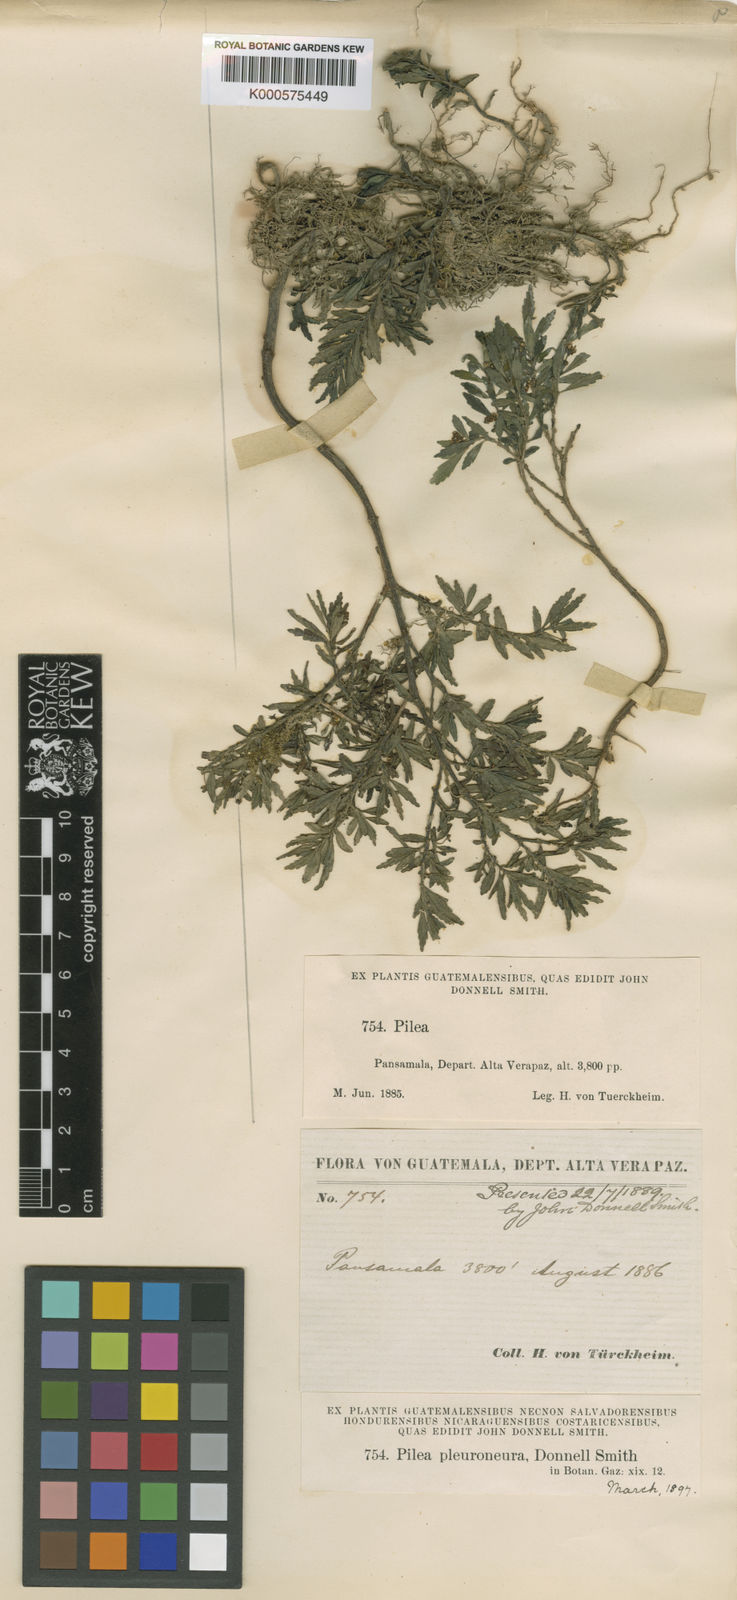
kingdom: Plantae
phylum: Tracheophyta
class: Magnoliopsida
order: Rosales
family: Urticaceae
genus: Pilea
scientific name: Pilea pleuroneura
